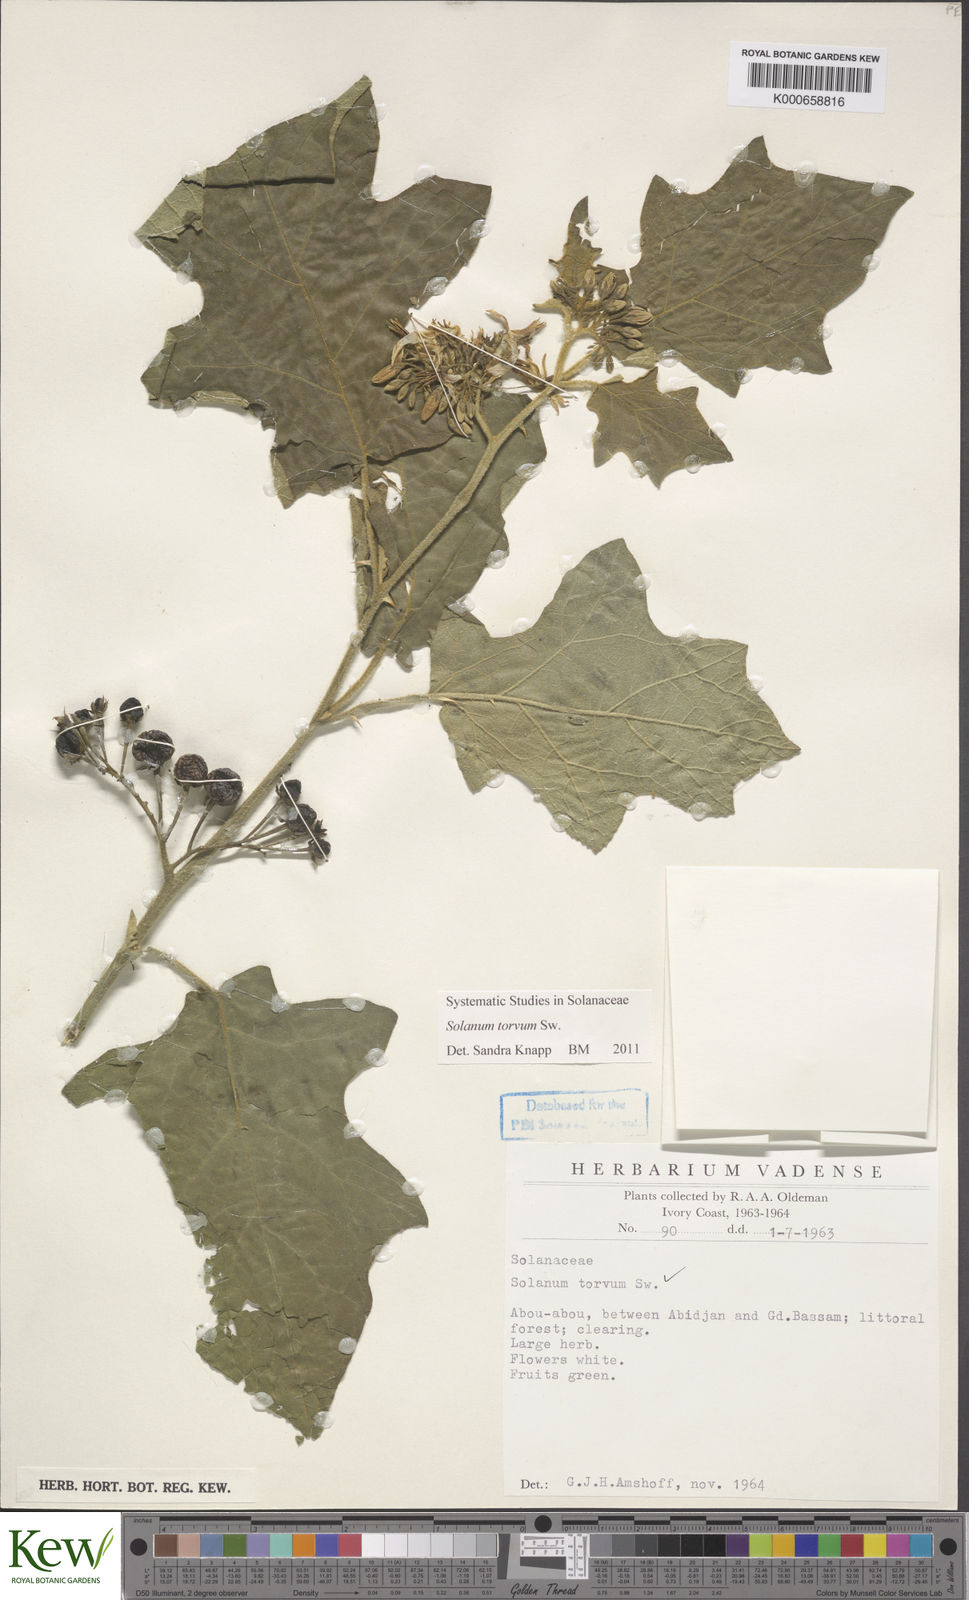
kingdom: Plantae
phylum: Tracheophyta
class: Magnoliopsida
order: Solanales
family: Solanaceae
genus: Solanum
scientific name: Solanum torvum
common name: Turkey berry
